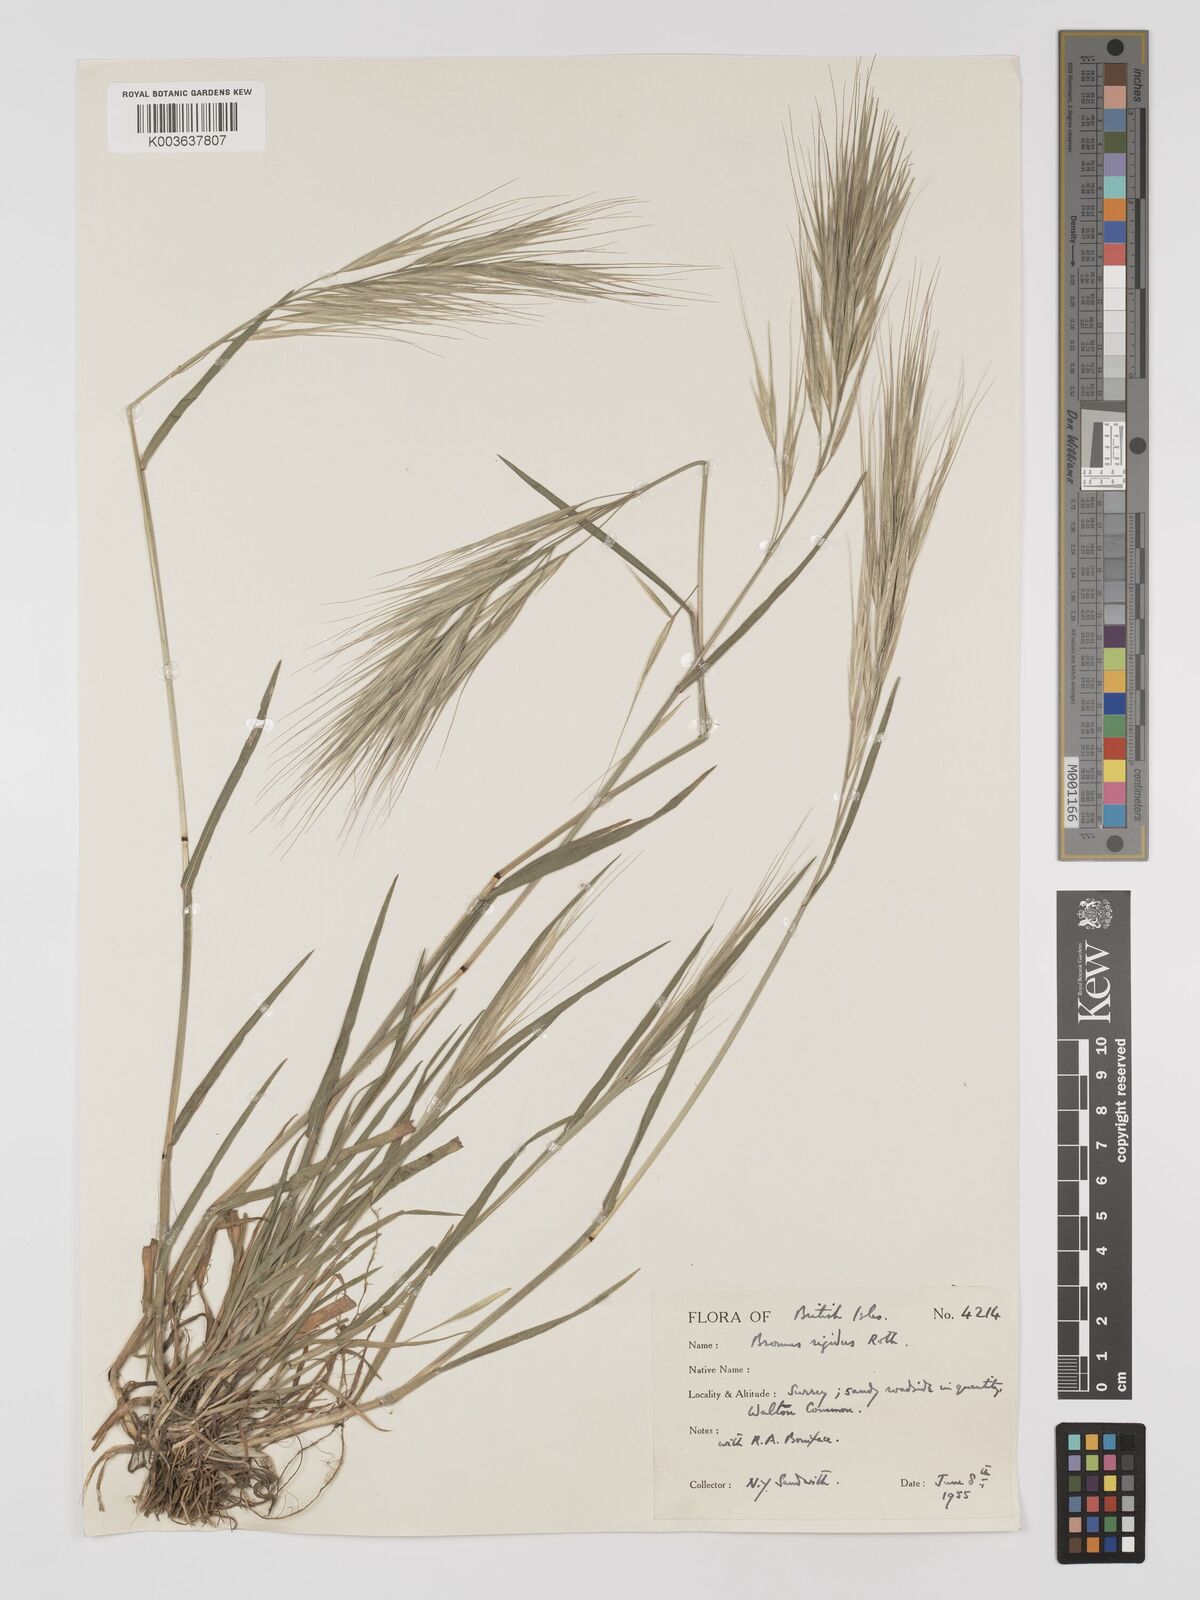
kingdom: Plantae
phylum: Tracheophyta
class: Liliopsida
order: Poales
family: Poaceae
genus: Bromus
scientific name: Bromus
